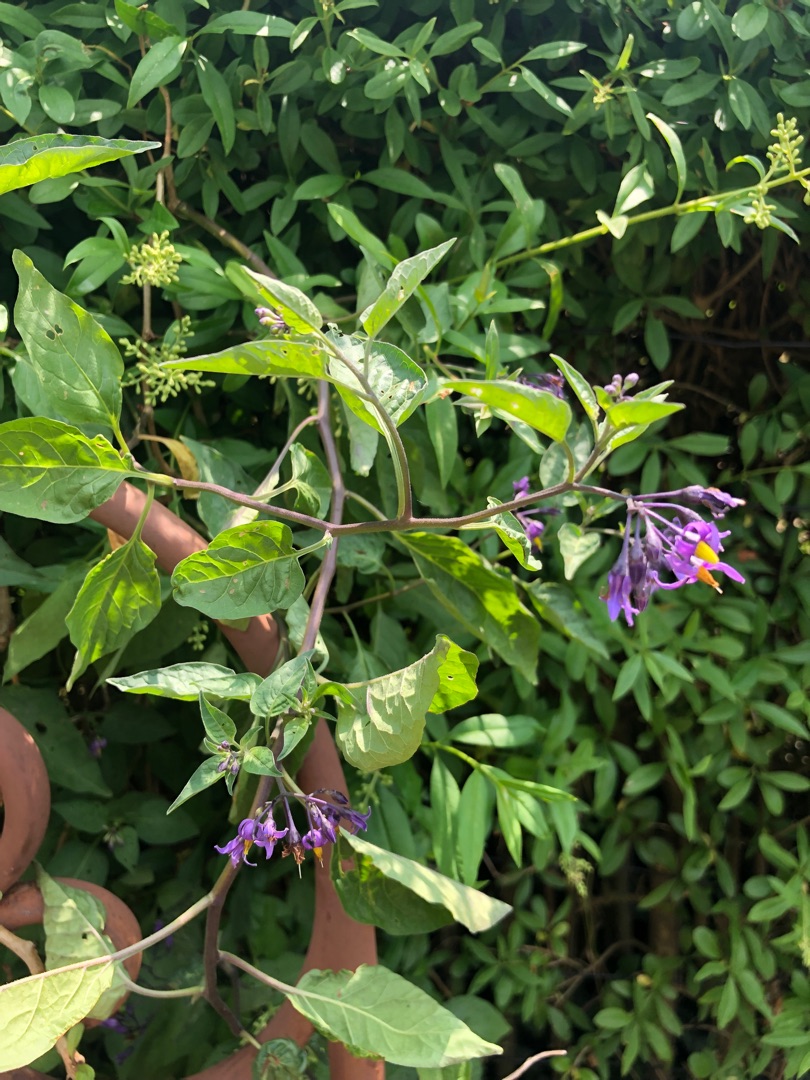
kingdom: Plantae
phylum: Tracheophyta
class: Magnoliopsida
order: Solanales
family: Solanaceae
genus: Solanum
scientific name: Solanum dulcamara
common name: Bittersød natskygge
